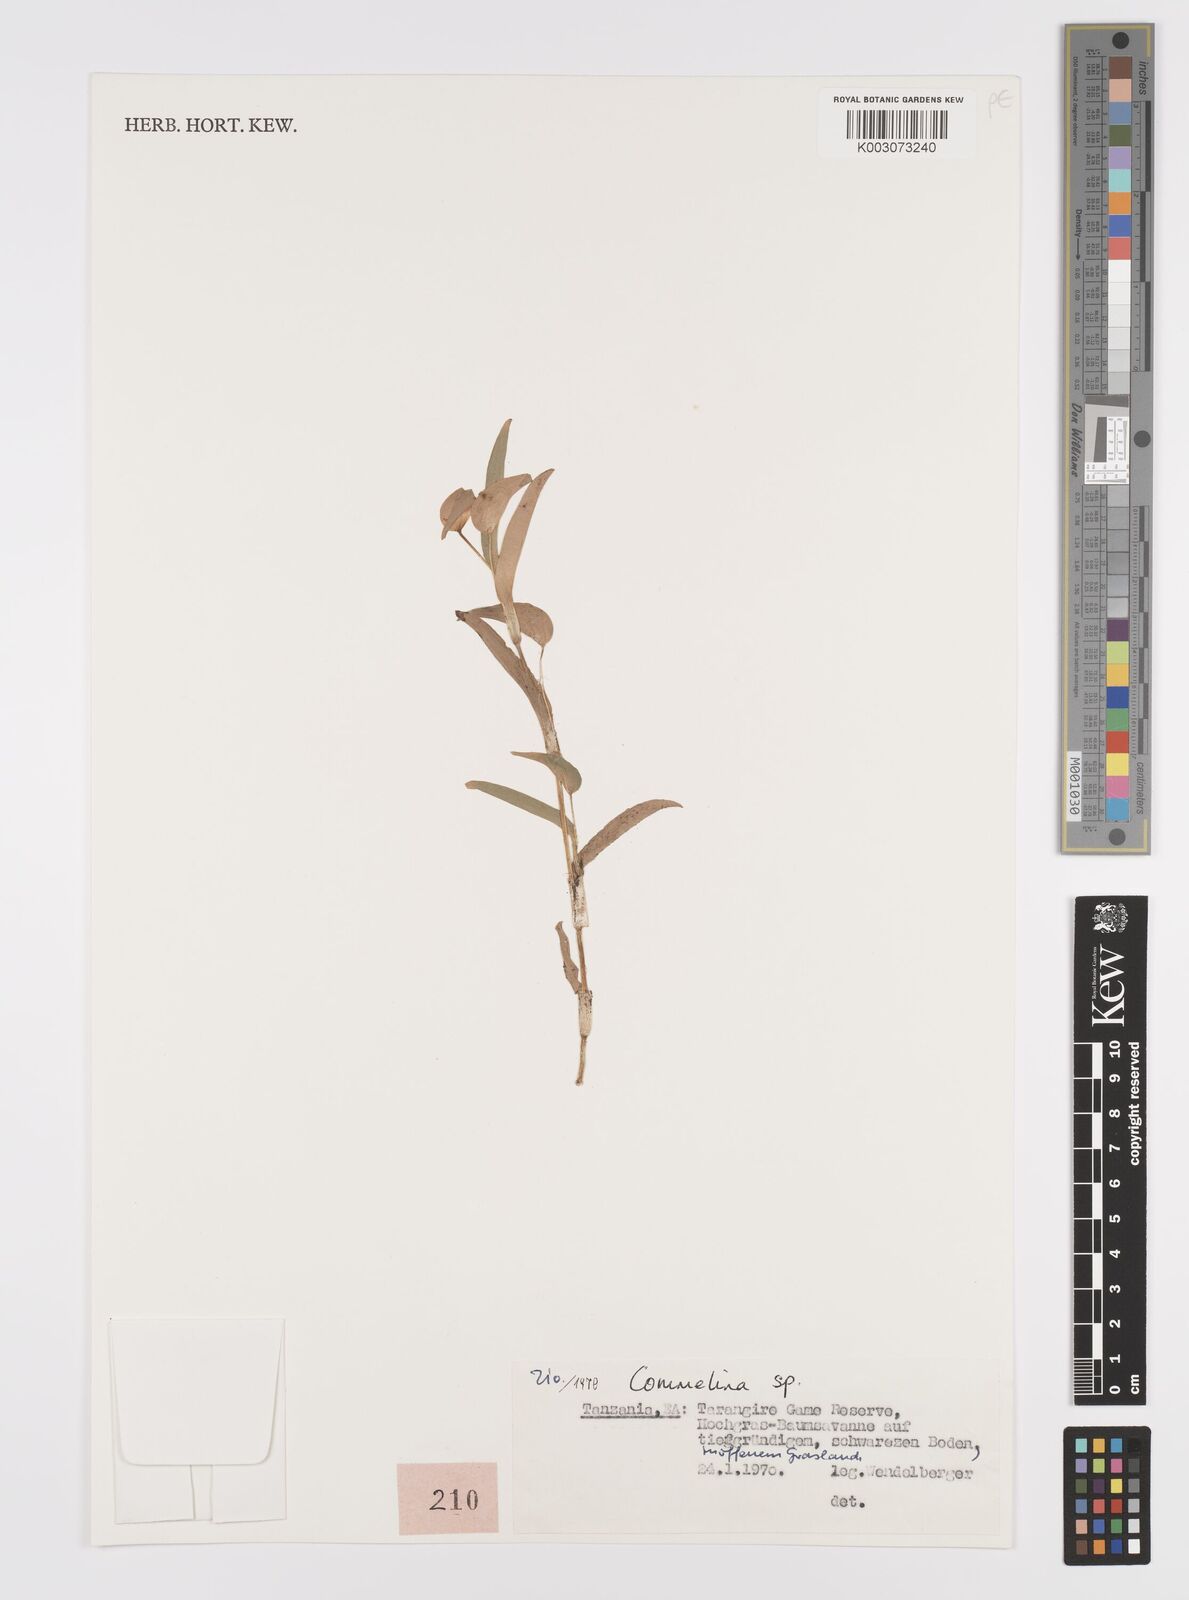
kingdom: Plantae
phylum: Tracheophyta
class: Liliopsida
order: Commelinales
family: Commelinaceae
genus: Commelina
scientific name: Commelina africana
